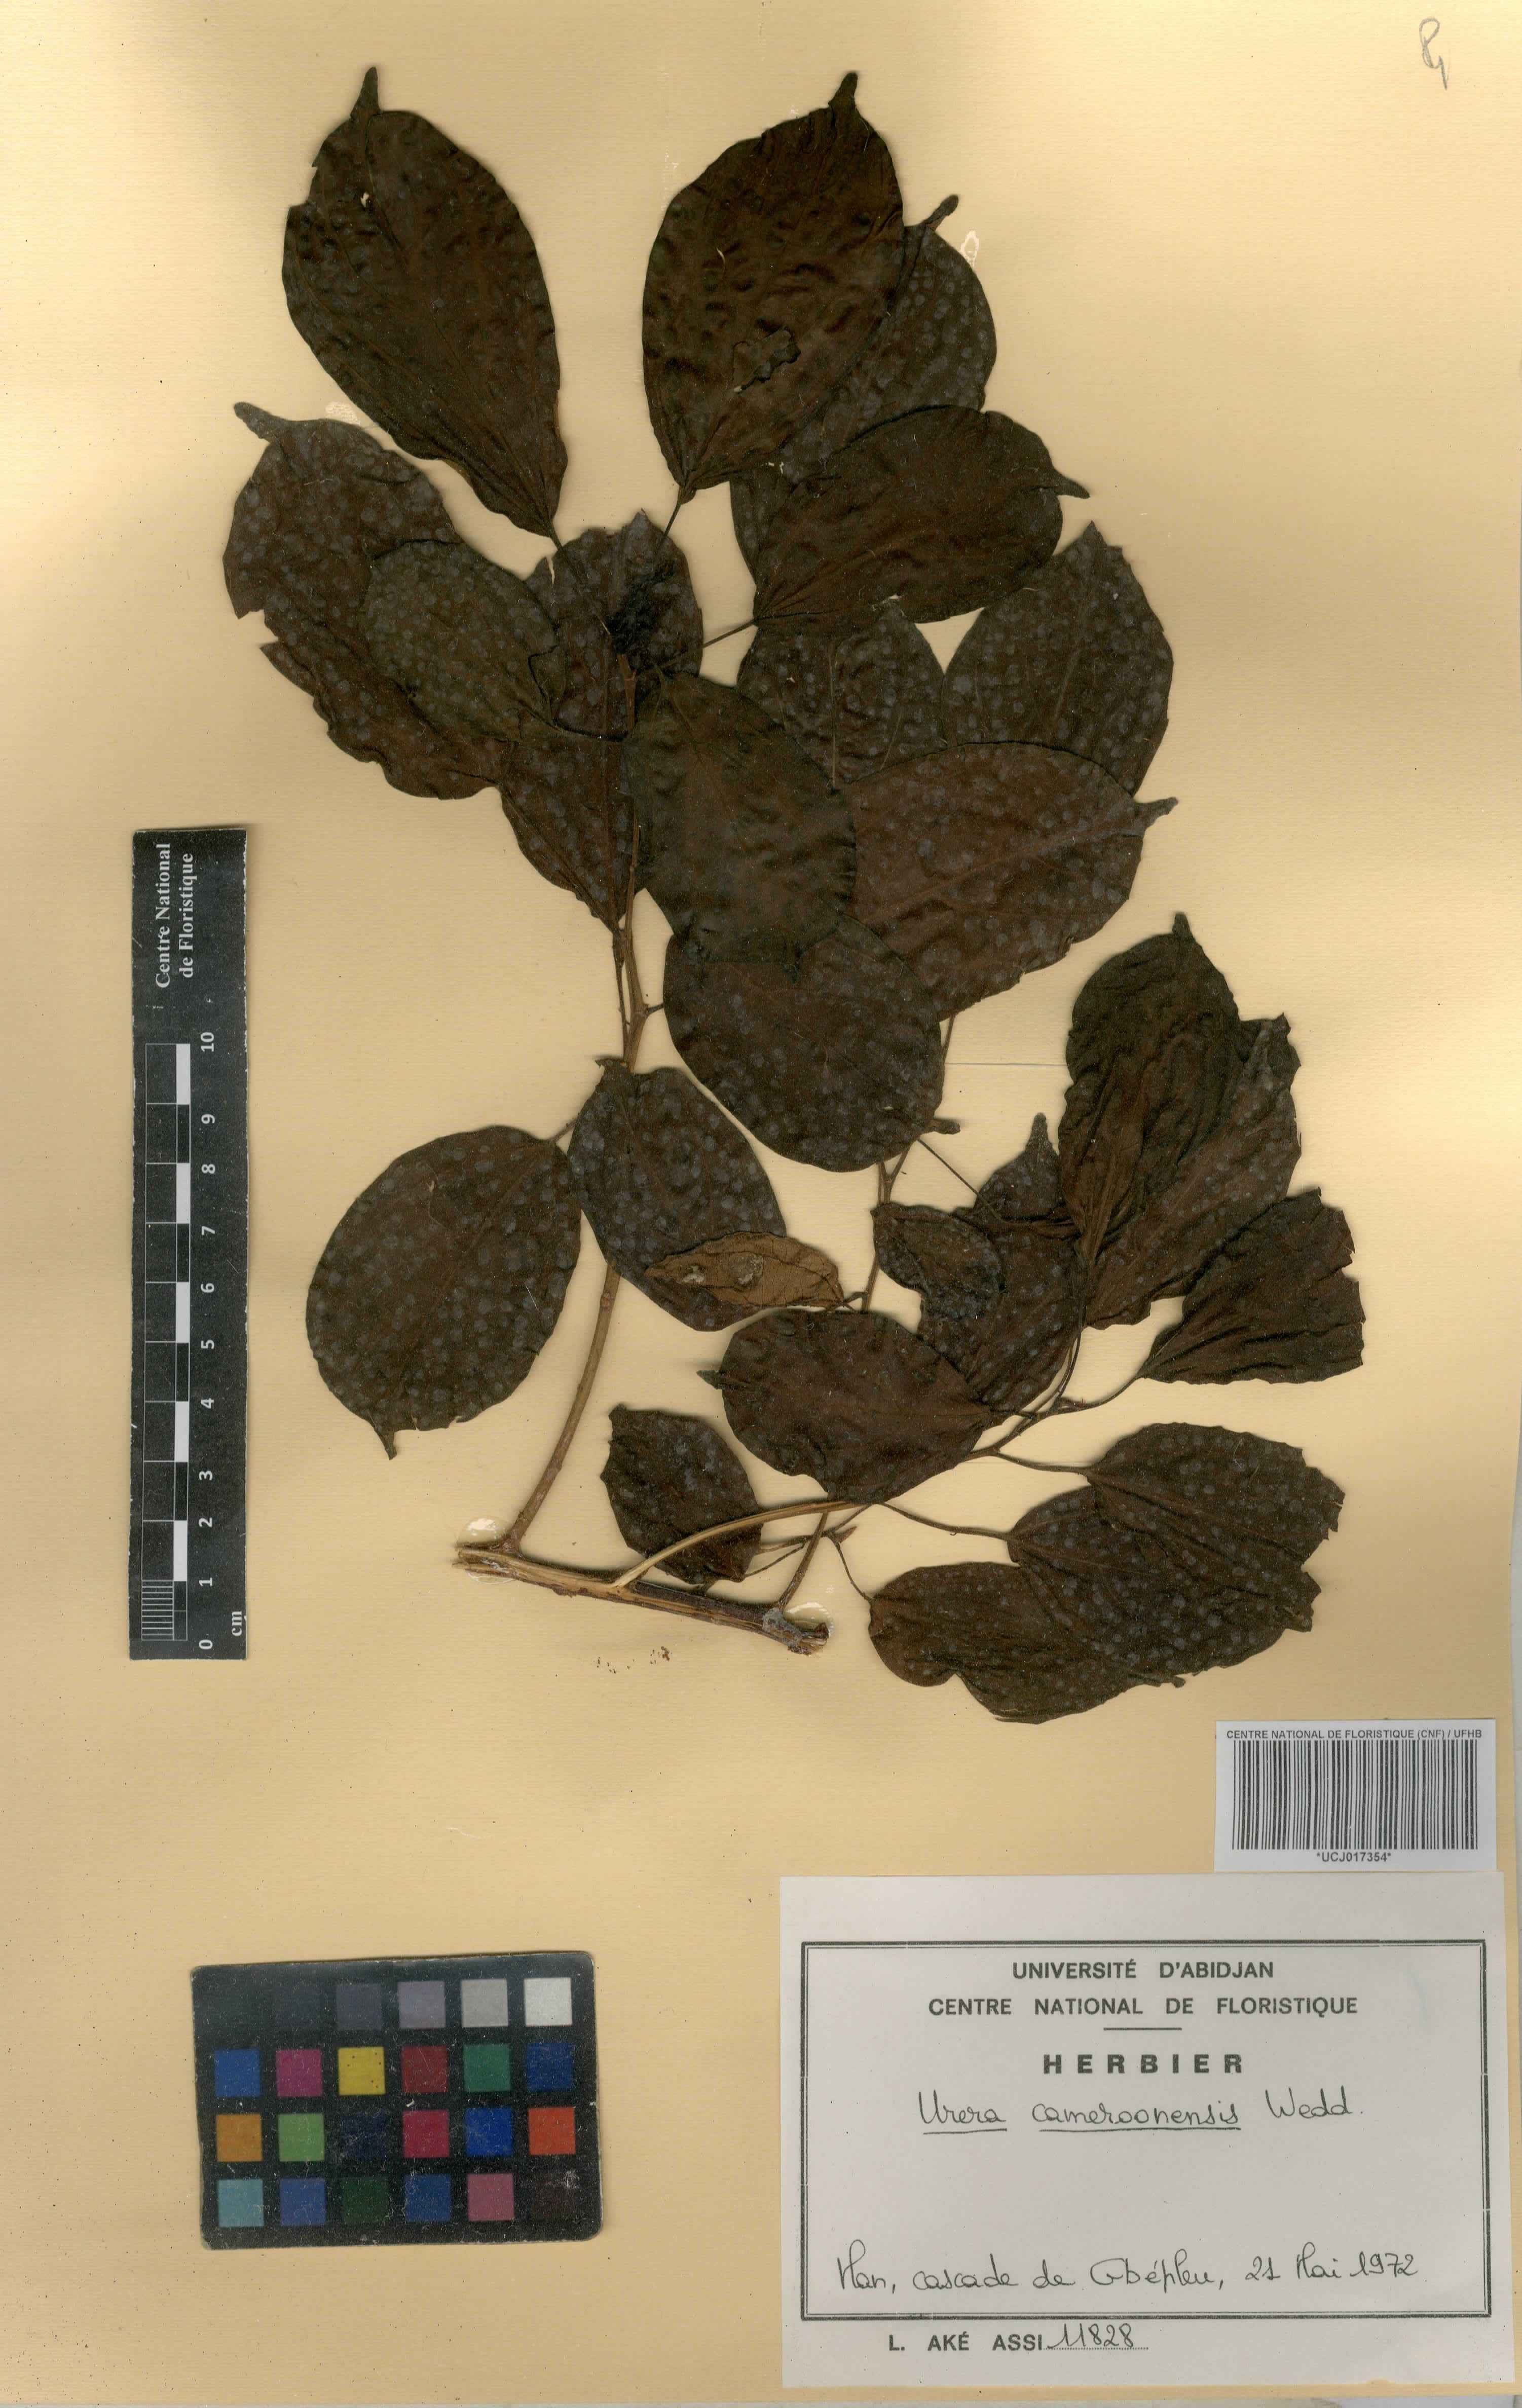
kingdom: Plantae
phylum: Tracheophyta
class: Magnoliopsida
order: Rosales
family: Urticaceae
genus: Scepocarpus
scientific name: Scepocarpus trinervis
